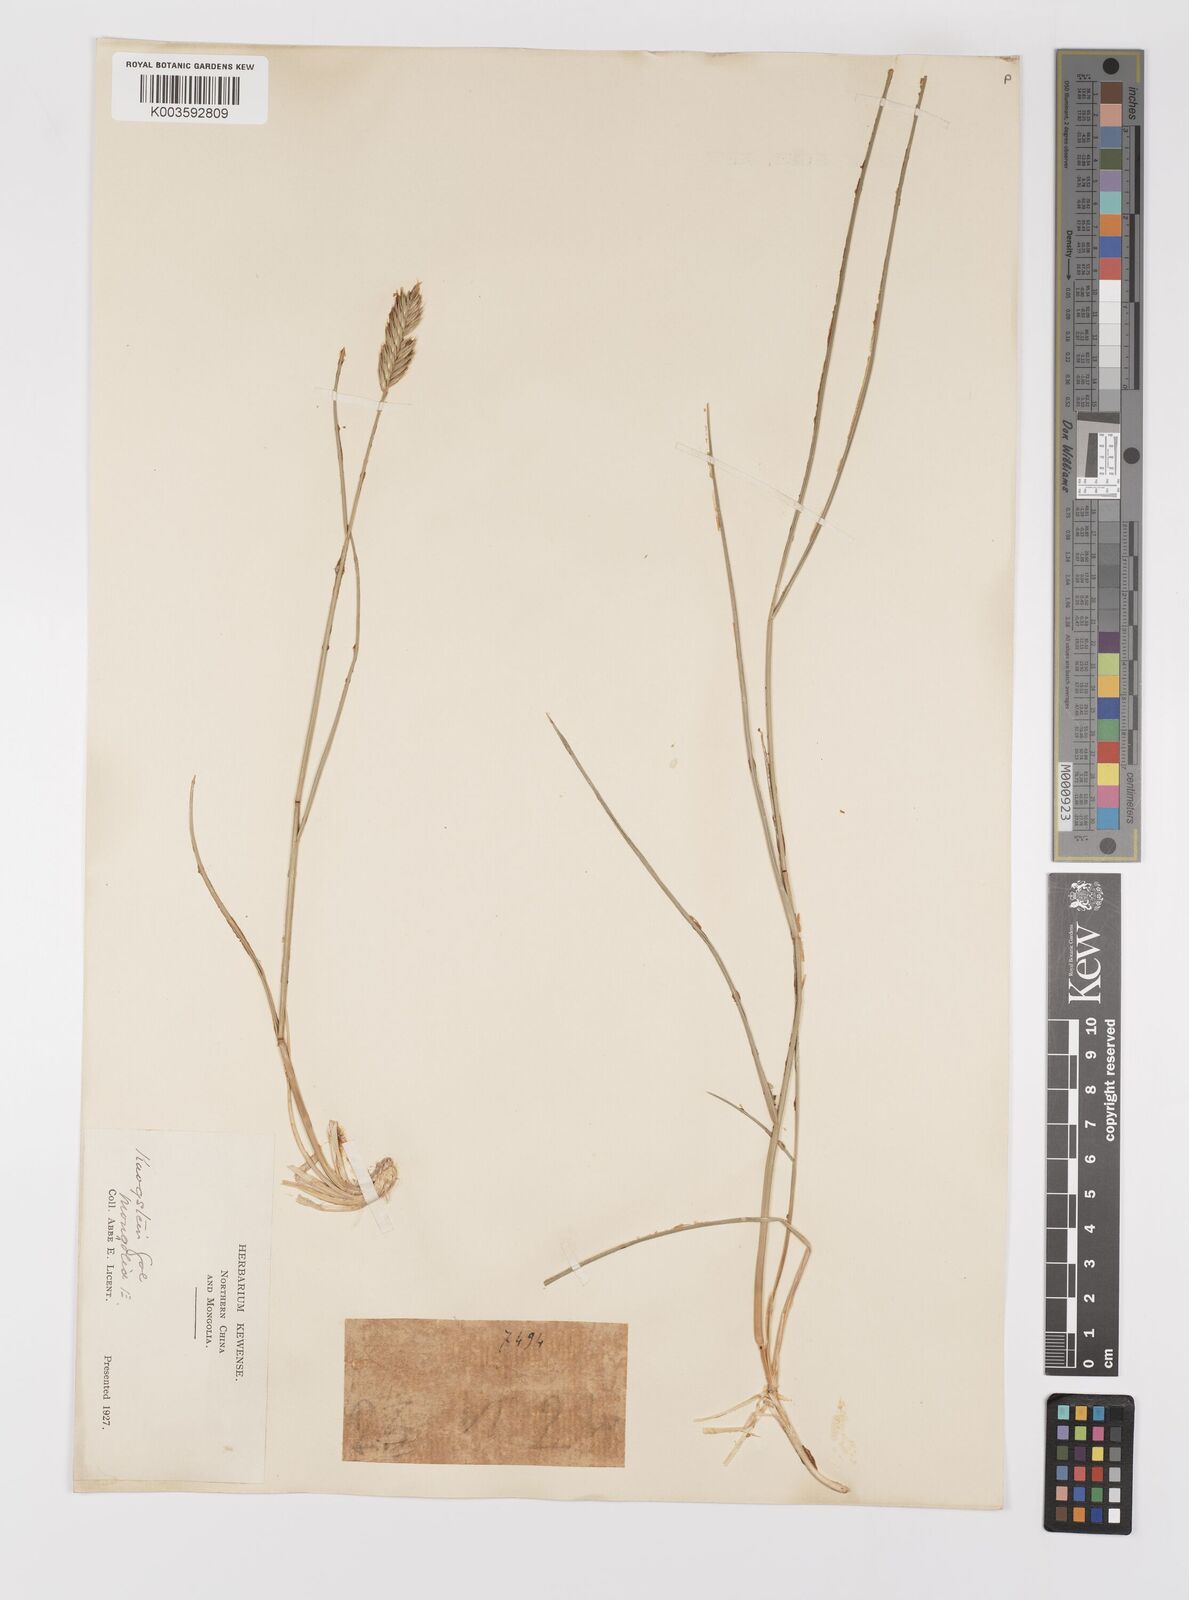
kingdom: Plantae
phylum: Tracheophyta
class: Liliopsida
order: Poales
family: Poaceae
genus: Agropyron
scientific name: Agropyron cristatum
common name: Crested wheatgrass
